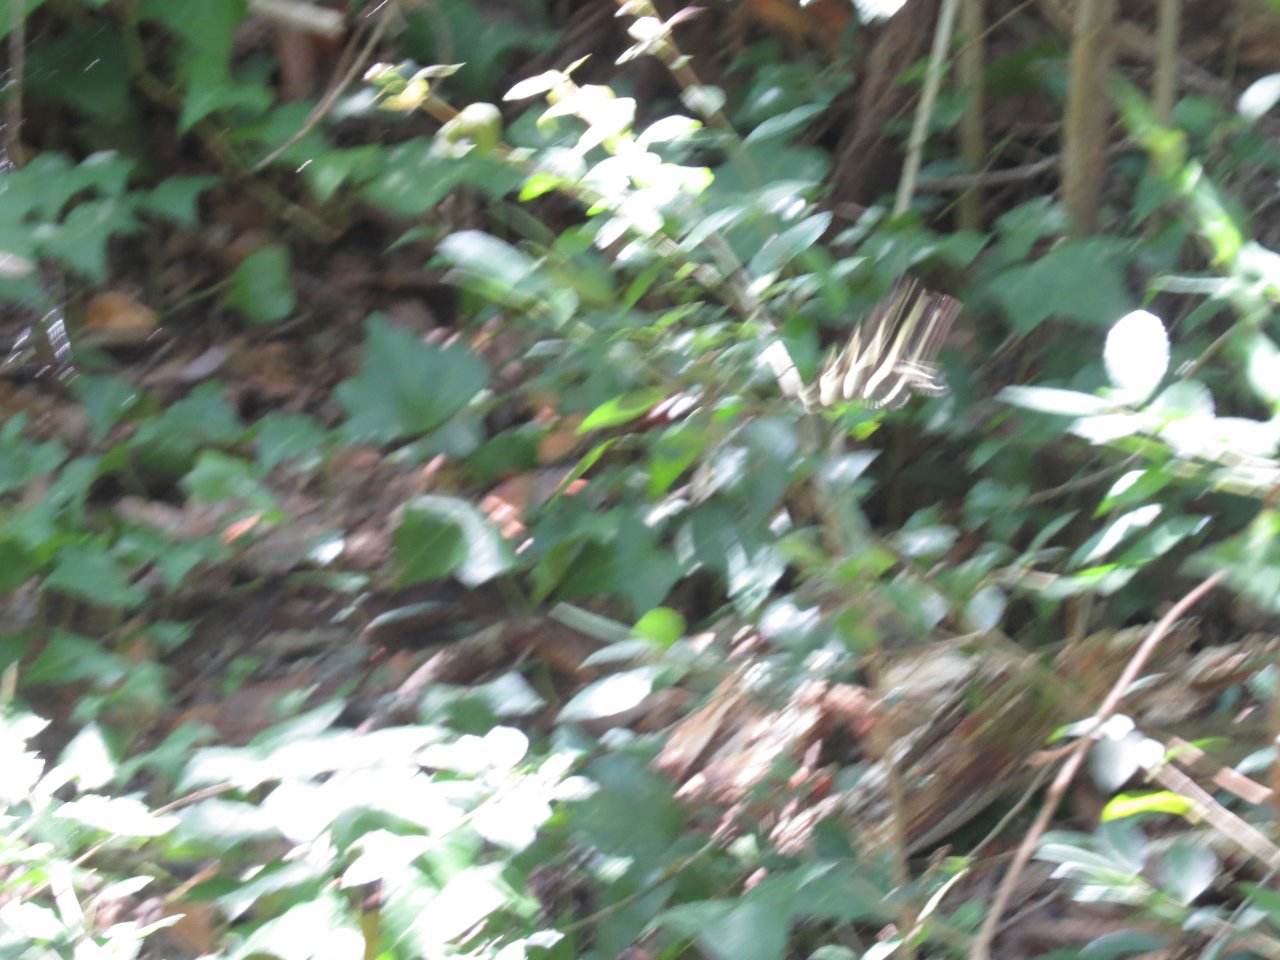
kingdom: Animalia
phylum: Arthropoda
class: Insecta
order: Lepidoptera
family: Nymphalidae
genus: Heliconius
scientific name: Heliconius charithonia
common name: Zebra Longwing
